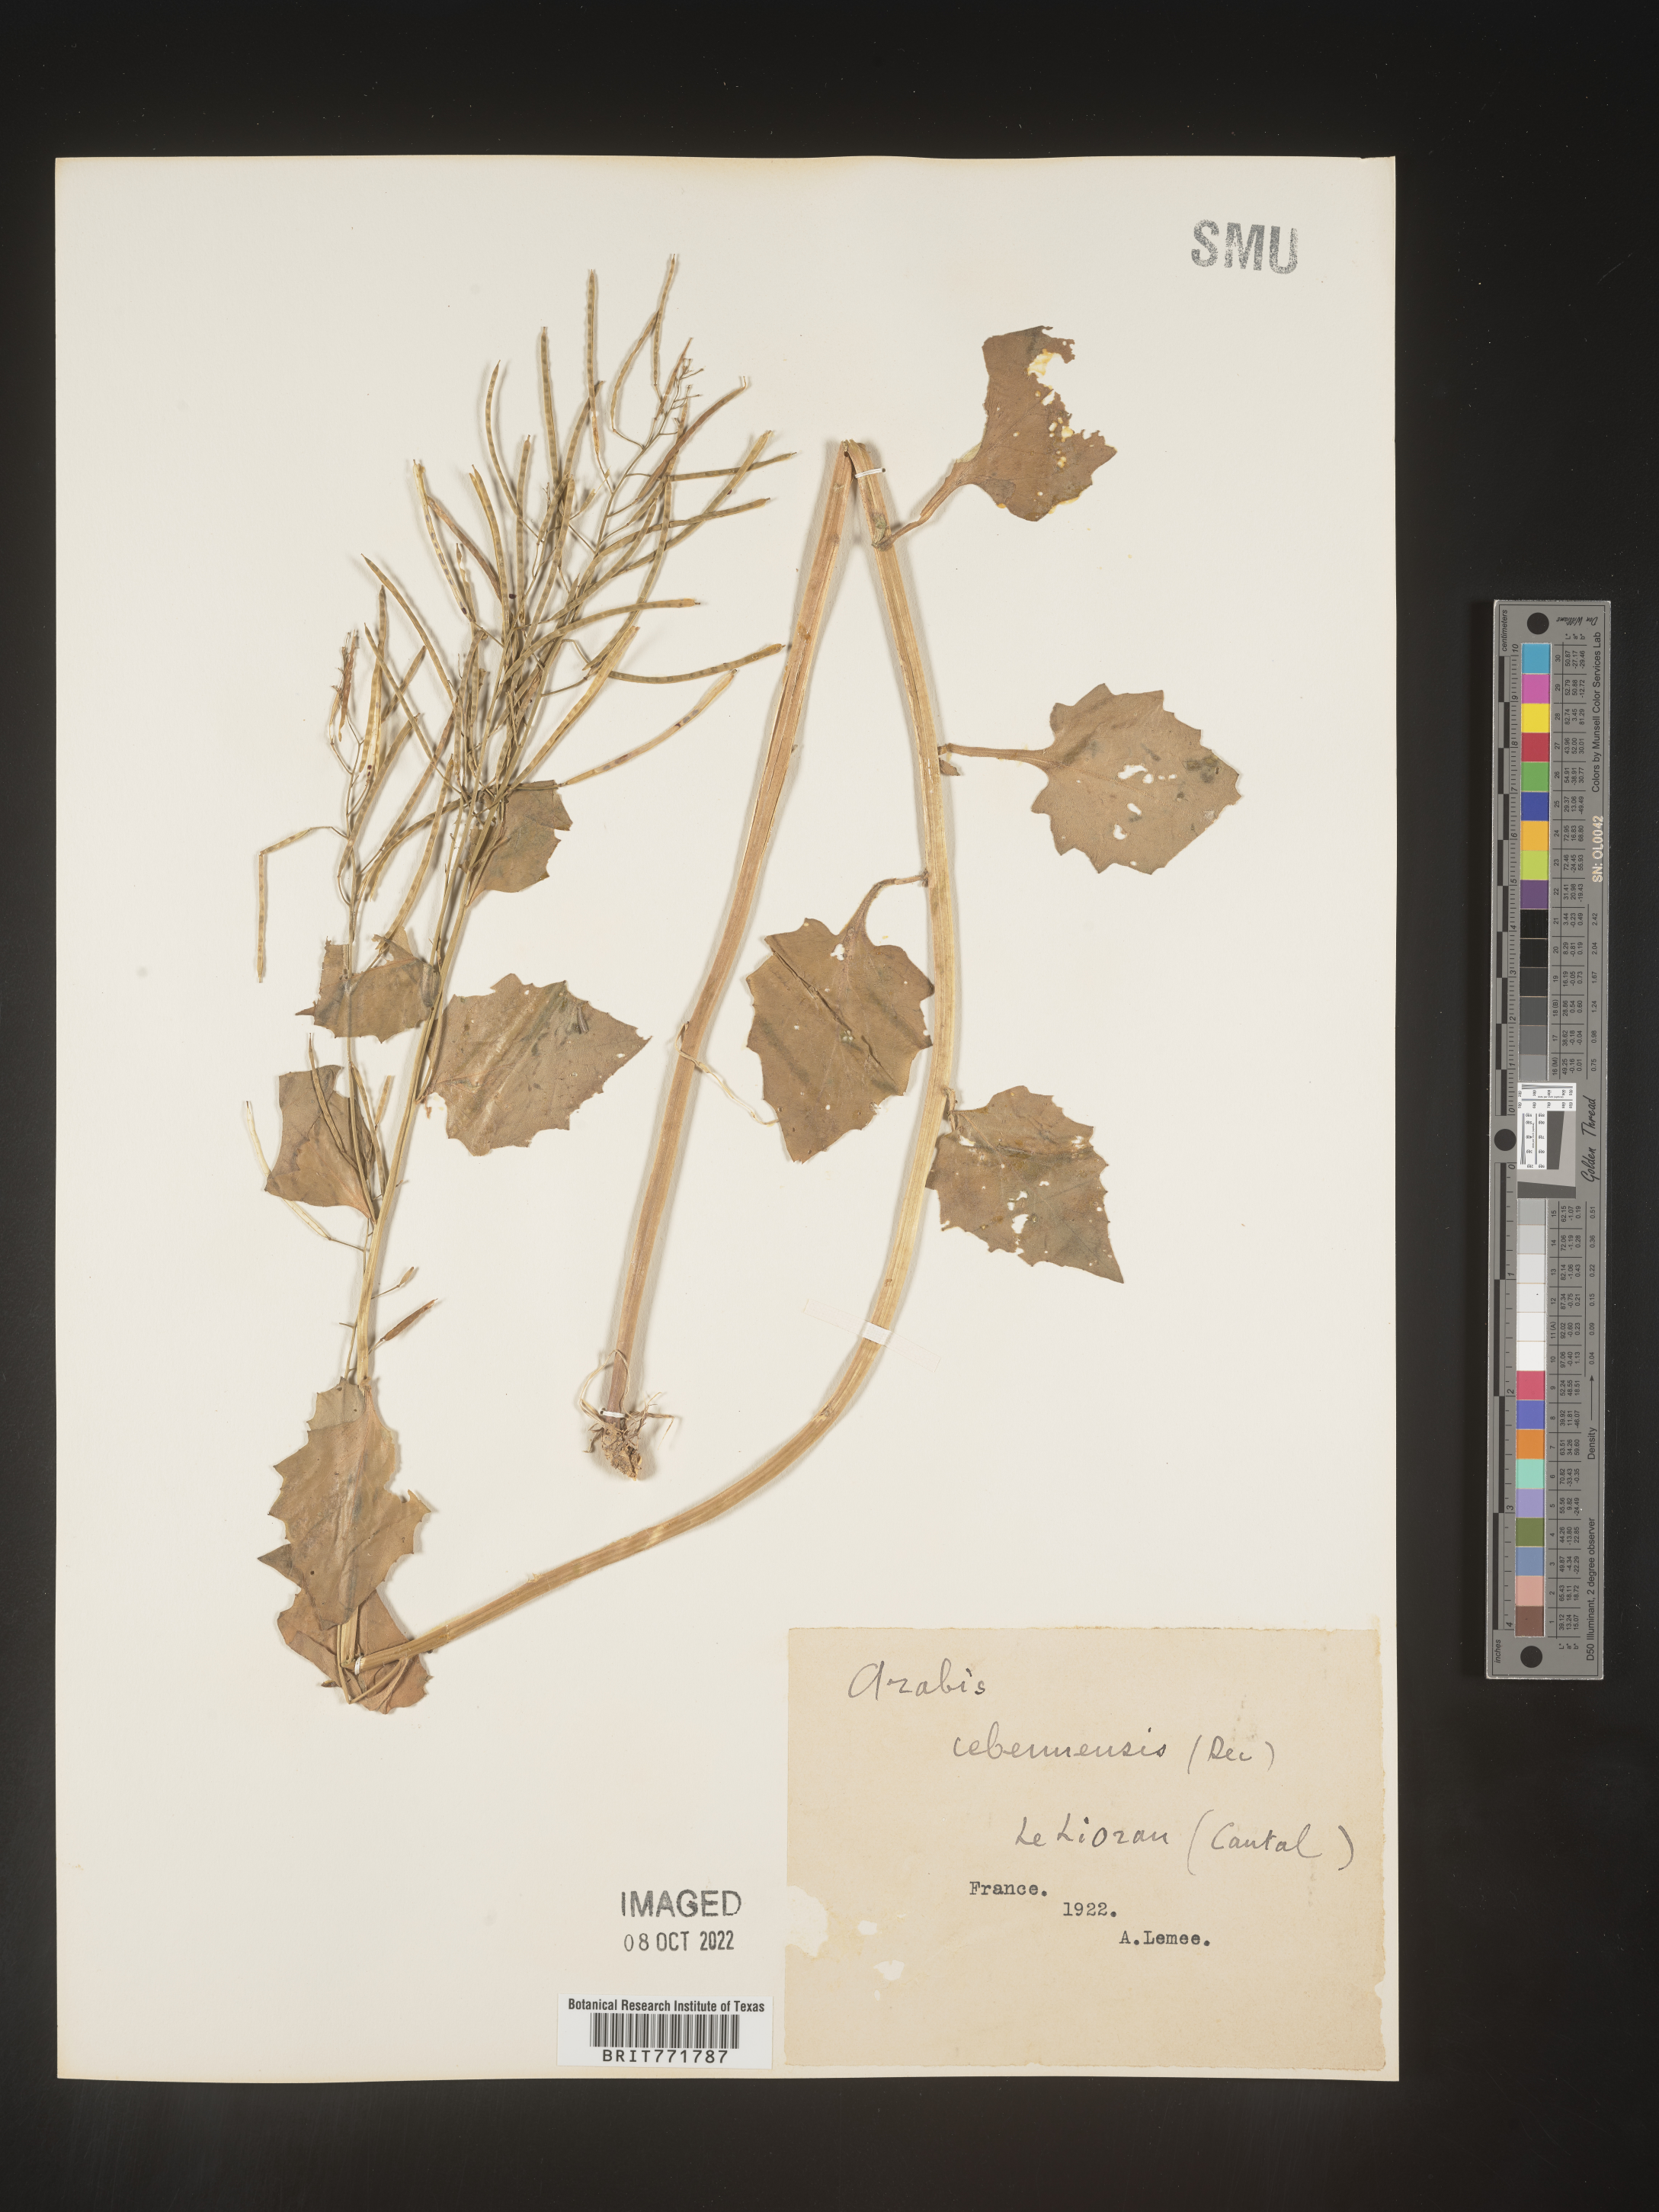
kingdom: Plantae
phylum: Tracheophyta
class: Magnoliopsida
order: Brassicales
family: Brassicaceae
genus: Arabis
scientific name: Arabis
